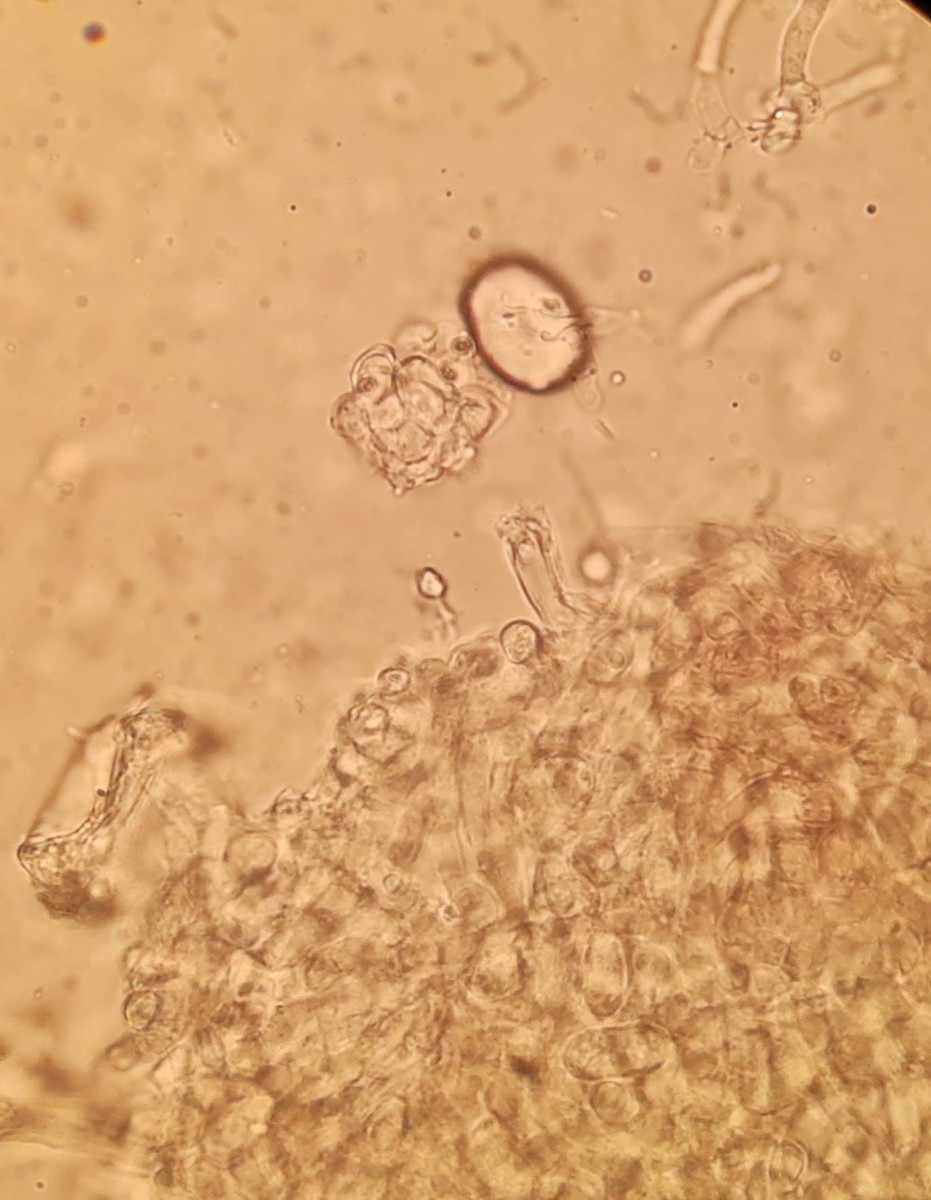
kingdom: Fungi
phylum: Ascomycota
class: Sordariomycetes
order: Hypocreales
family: Hypocreaceae
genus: Hypomyces
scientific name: Hypomyces papulasporae
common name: jordtunge-snylteskorpe
